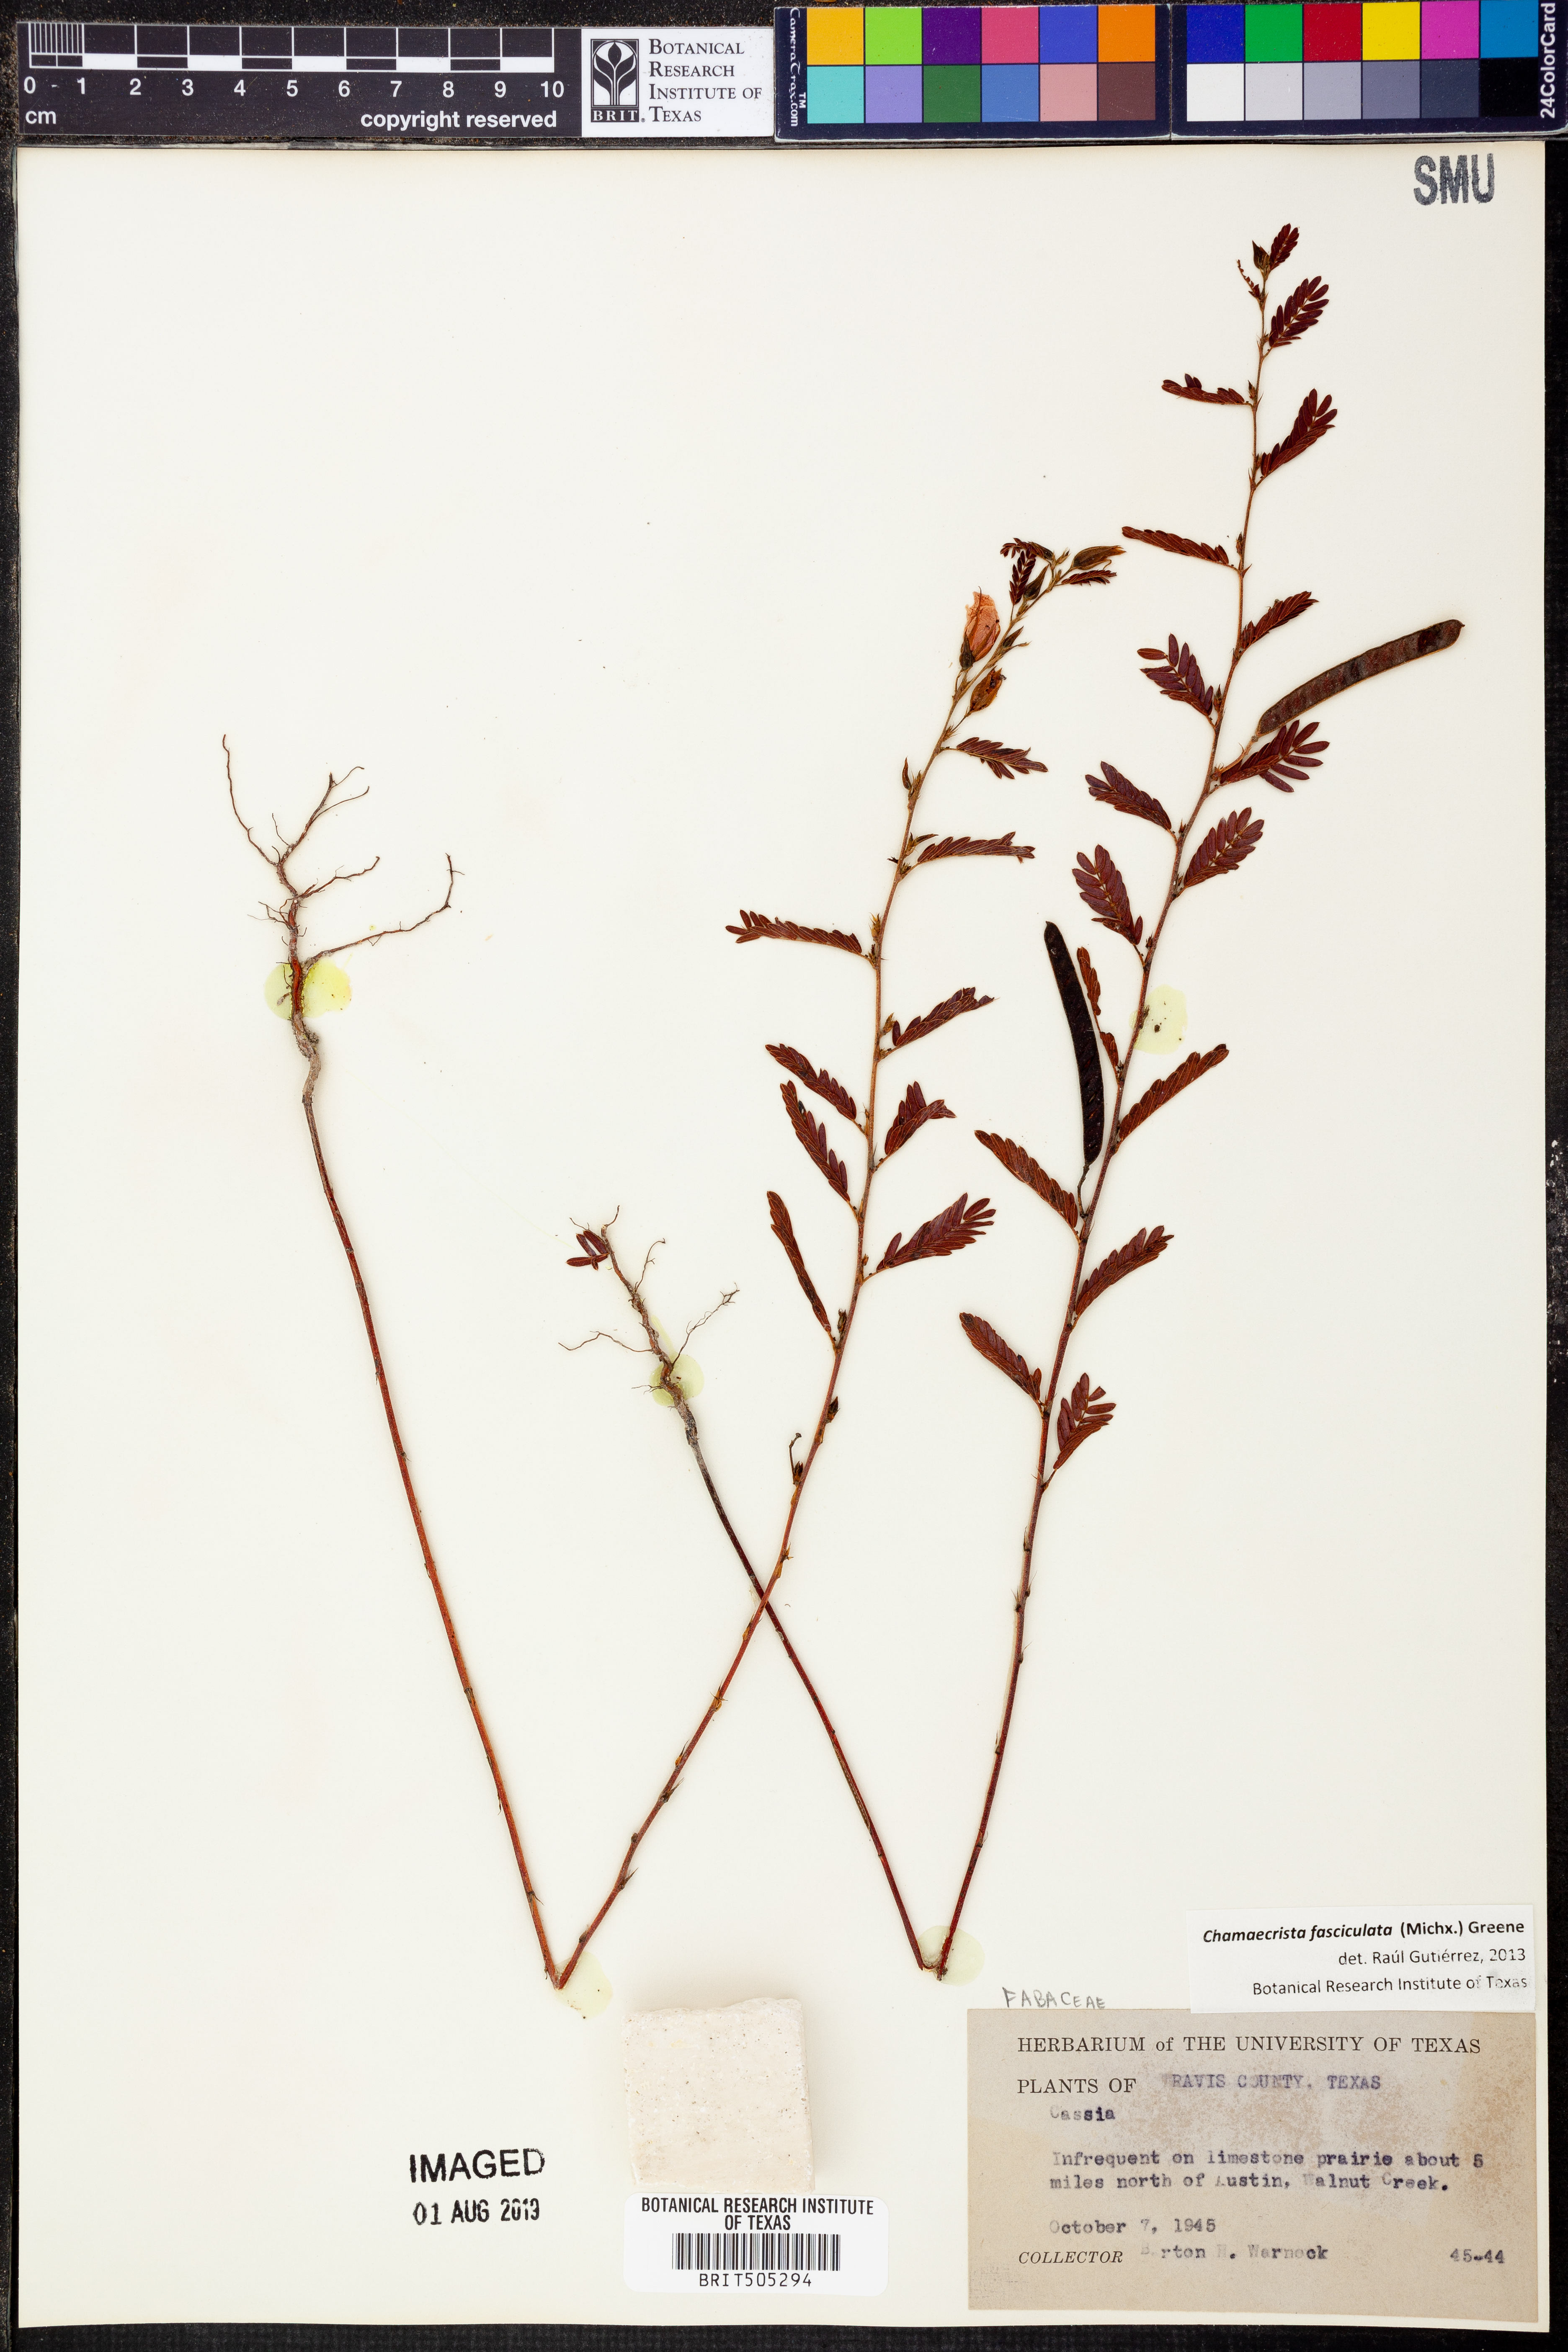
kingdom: Plantae
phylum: Tracheophyta
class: Magnoliopsida
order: Fabales
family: Fabaceae
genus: Chamaecrista
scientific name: Chamaecrista fasciculata
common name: Golden cassia
